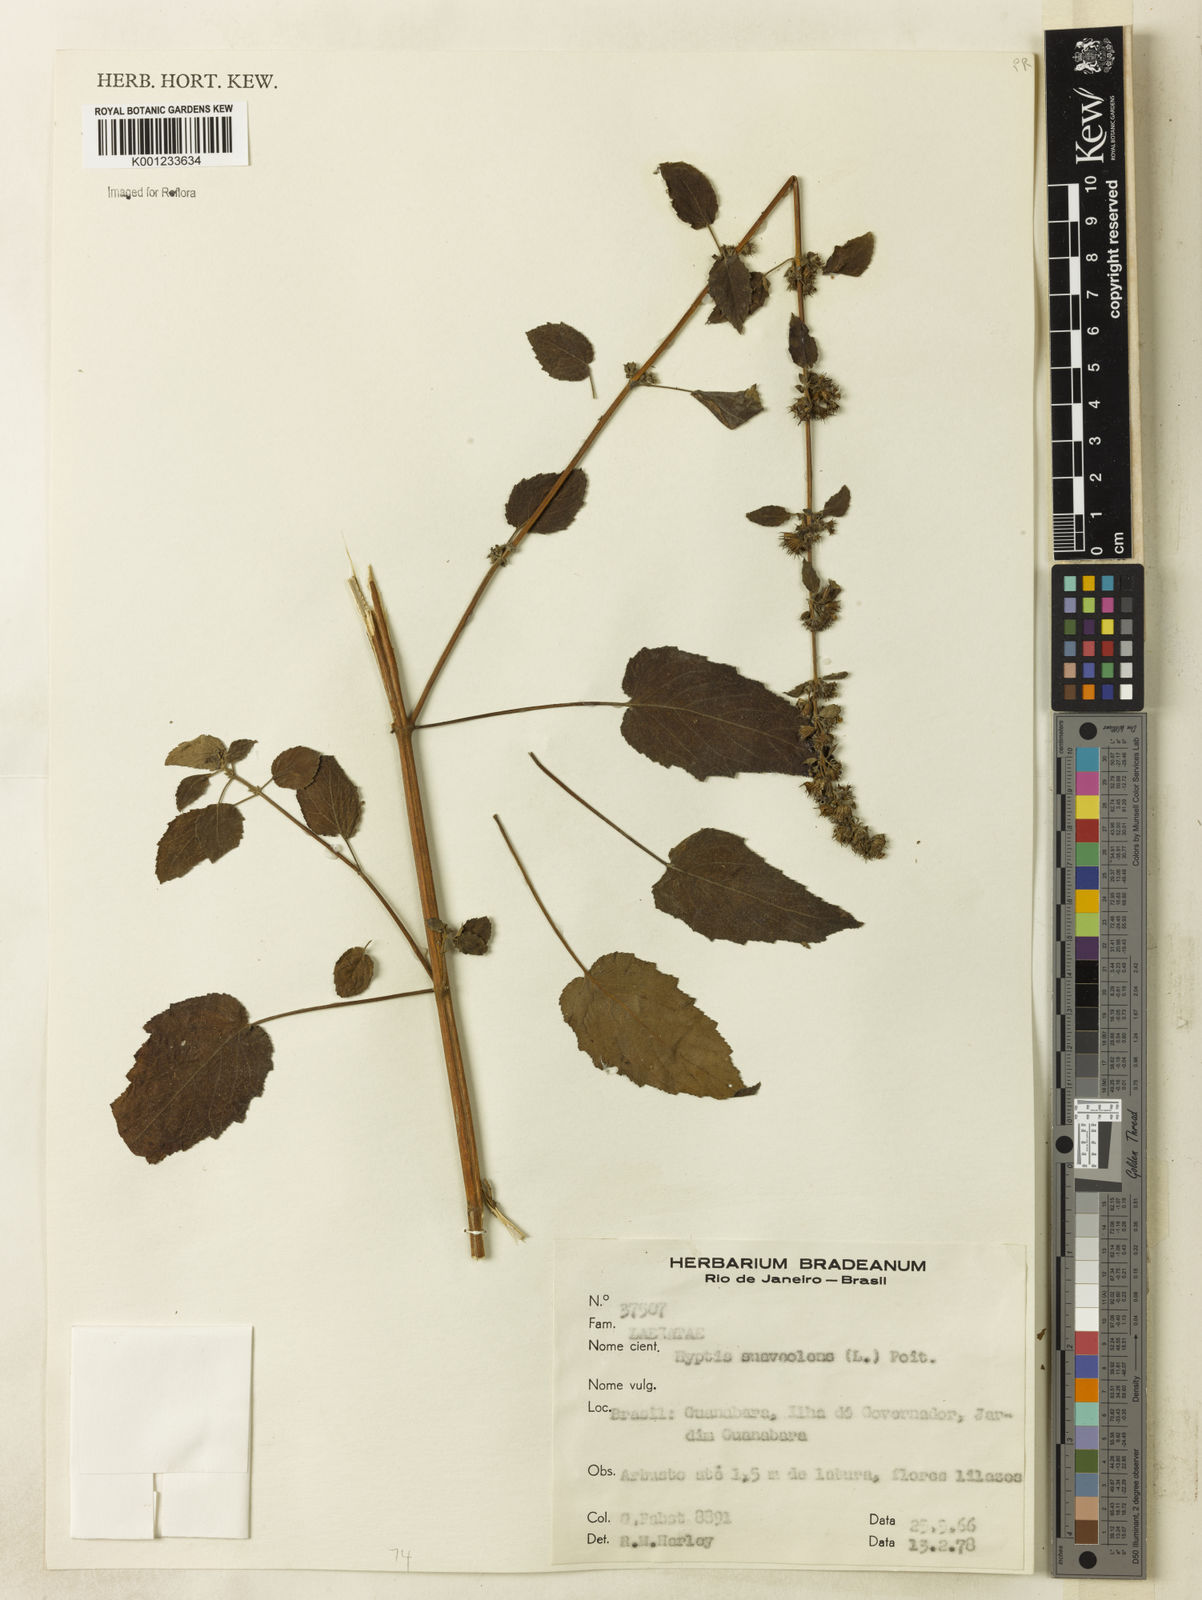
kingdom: Plantae
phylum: Tracheophyta
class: Magnoliopsida
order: Lamiales
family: Lamiaceae
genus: Mesosphaerum
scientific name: Mesosphaerum suaveolens
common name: Pignut
